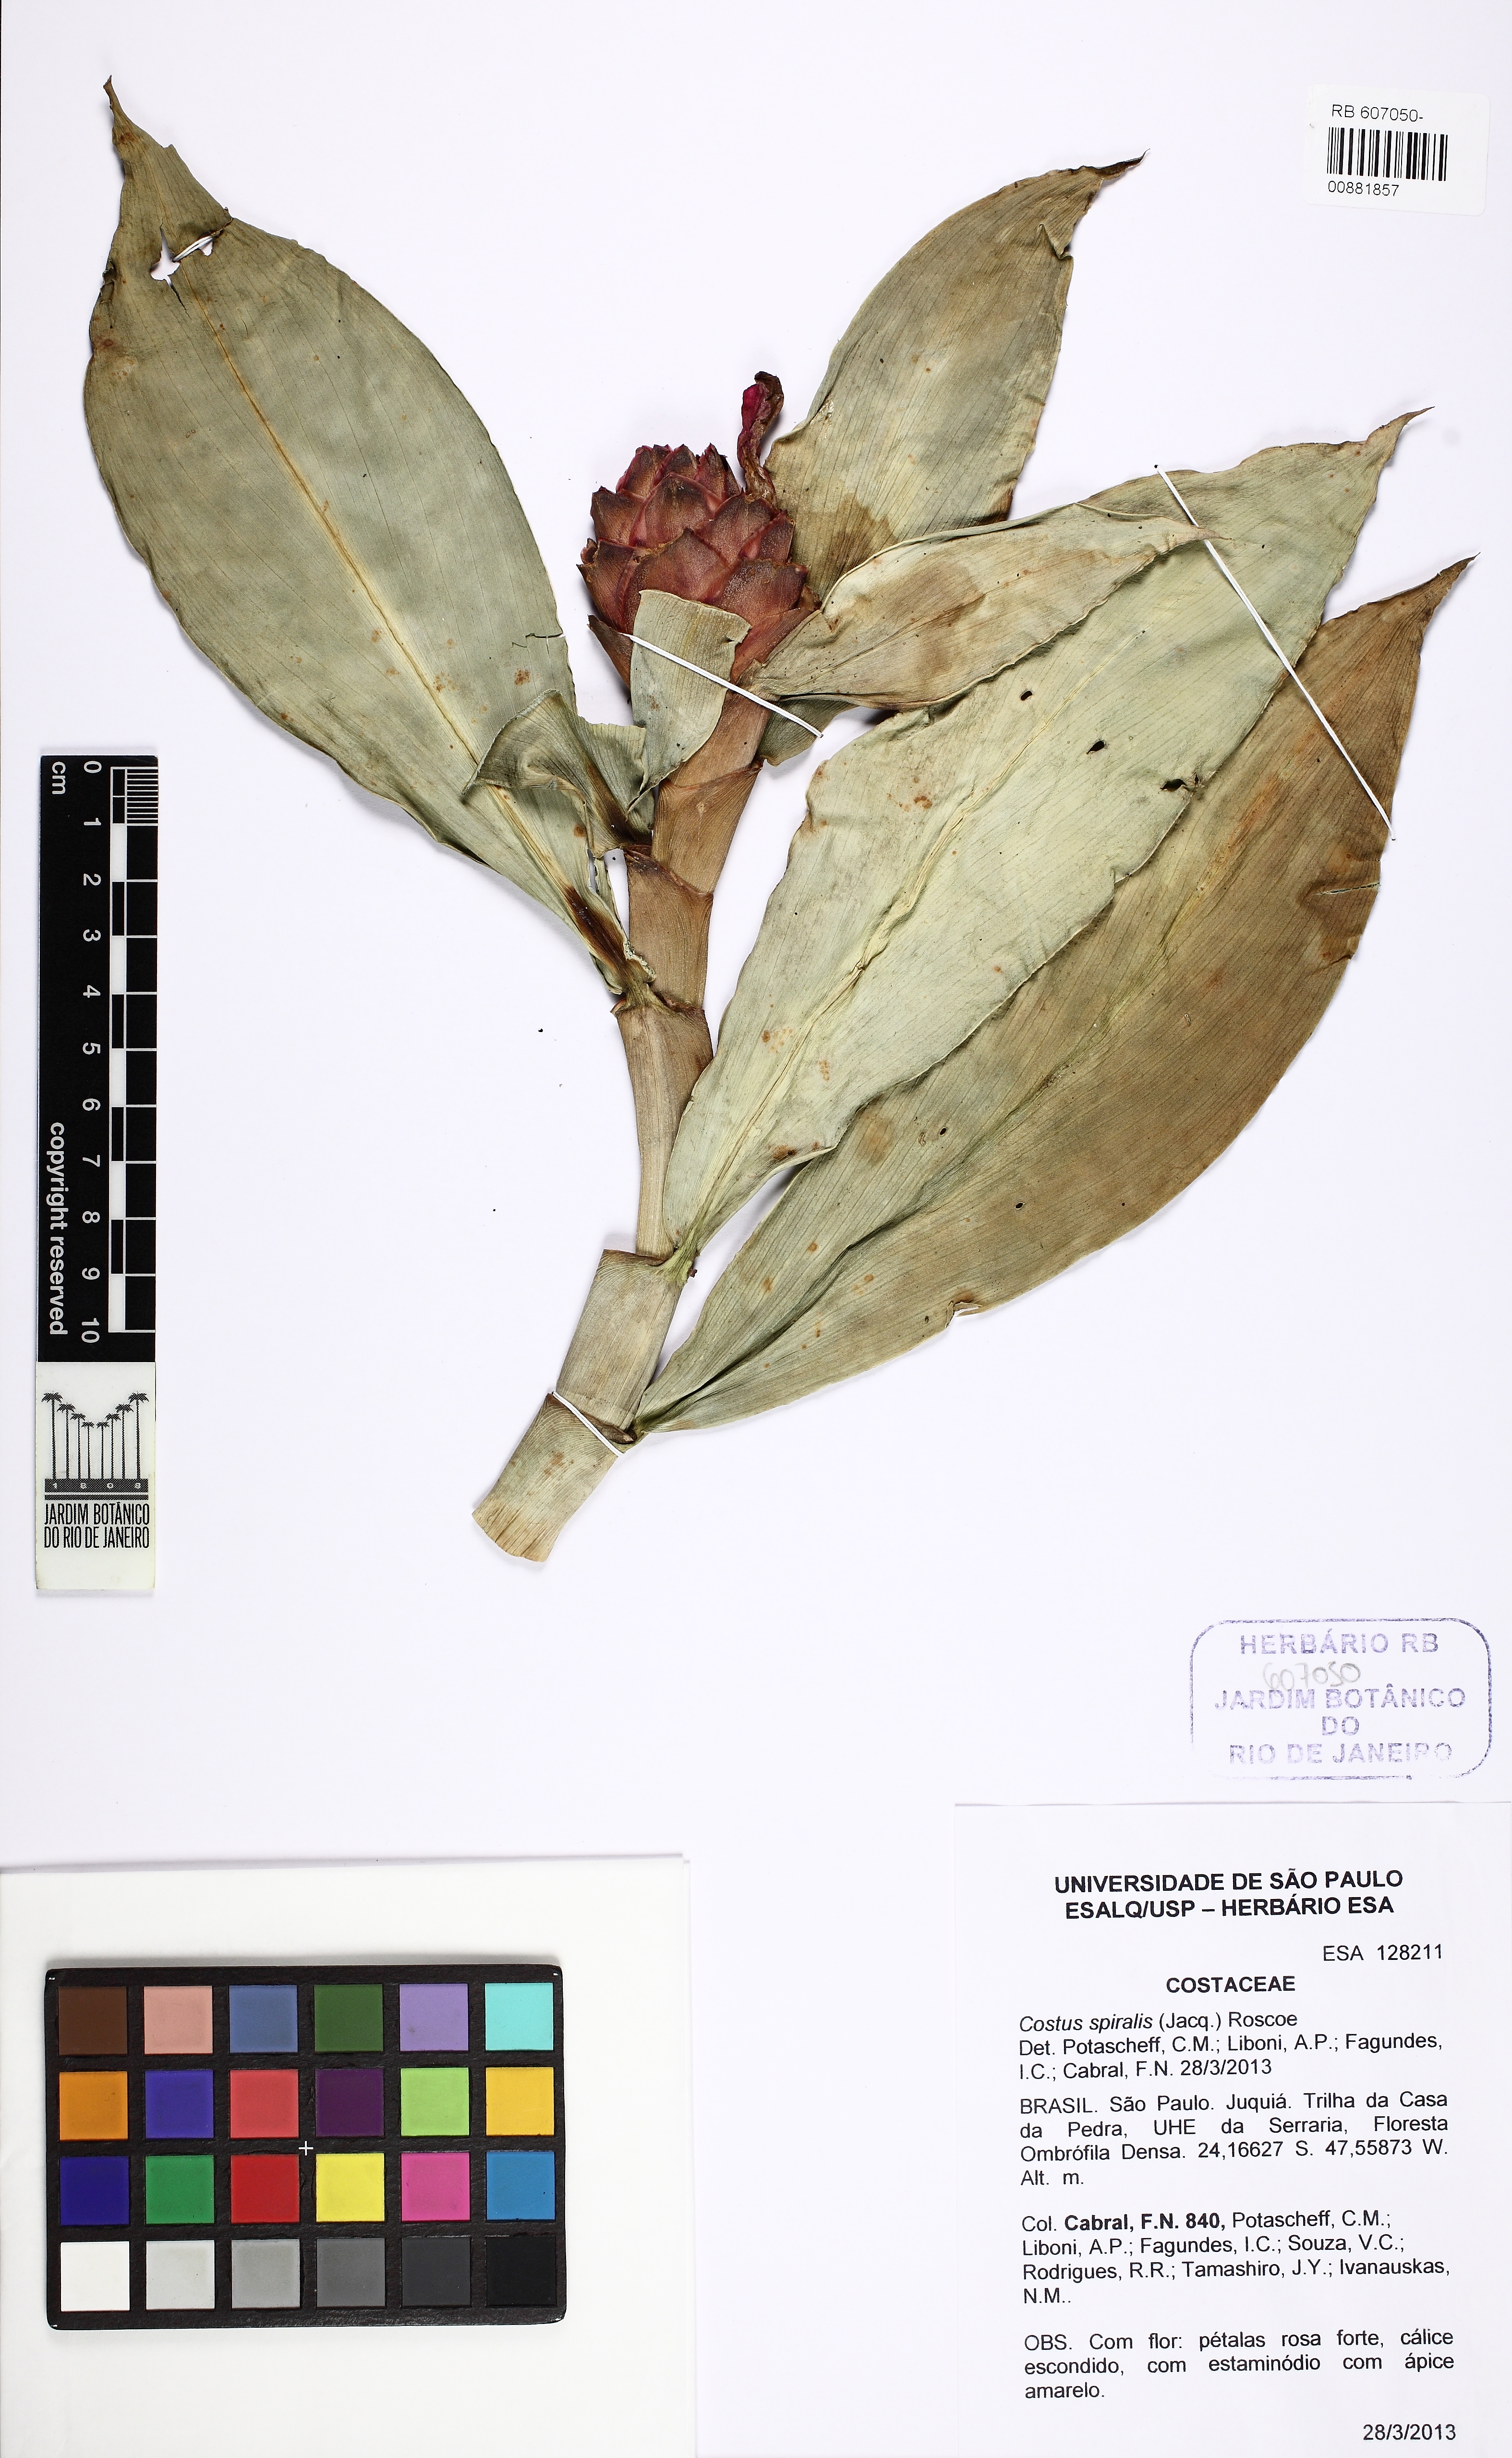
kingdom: Plantae
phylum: Tracheophyta
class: Liliopsida
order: Zingiberales
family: Costaceae
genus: Costus
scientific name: Costus spiralis
